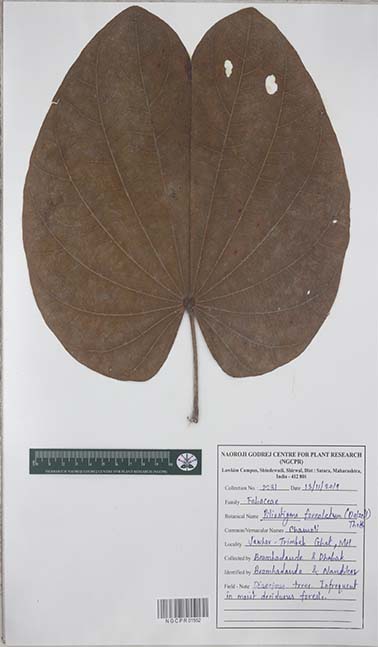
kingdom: Plantae
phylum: Tracheophyta
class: Magnoliopsida
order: Fabales
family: Fabaceae
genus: Piliostigma
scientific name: Piliostigma foveolatum
